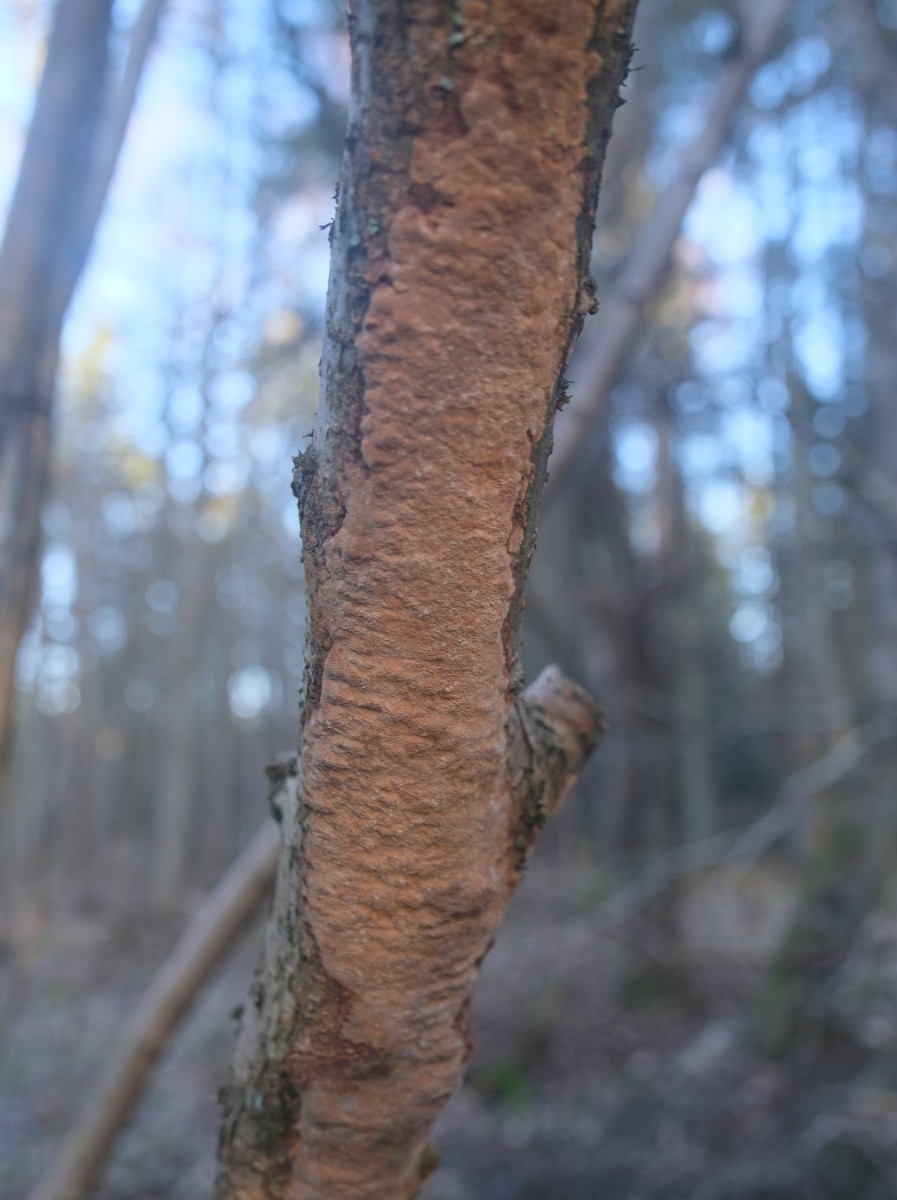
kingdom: Fungi
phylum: Basidiomycota
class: Agaricomycetes
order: Hymenochaetales
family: Hymenochaetaceae
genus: Fuscoporia
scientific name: Fuscoporia ferrea
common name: skorpe-ildporesvamp
